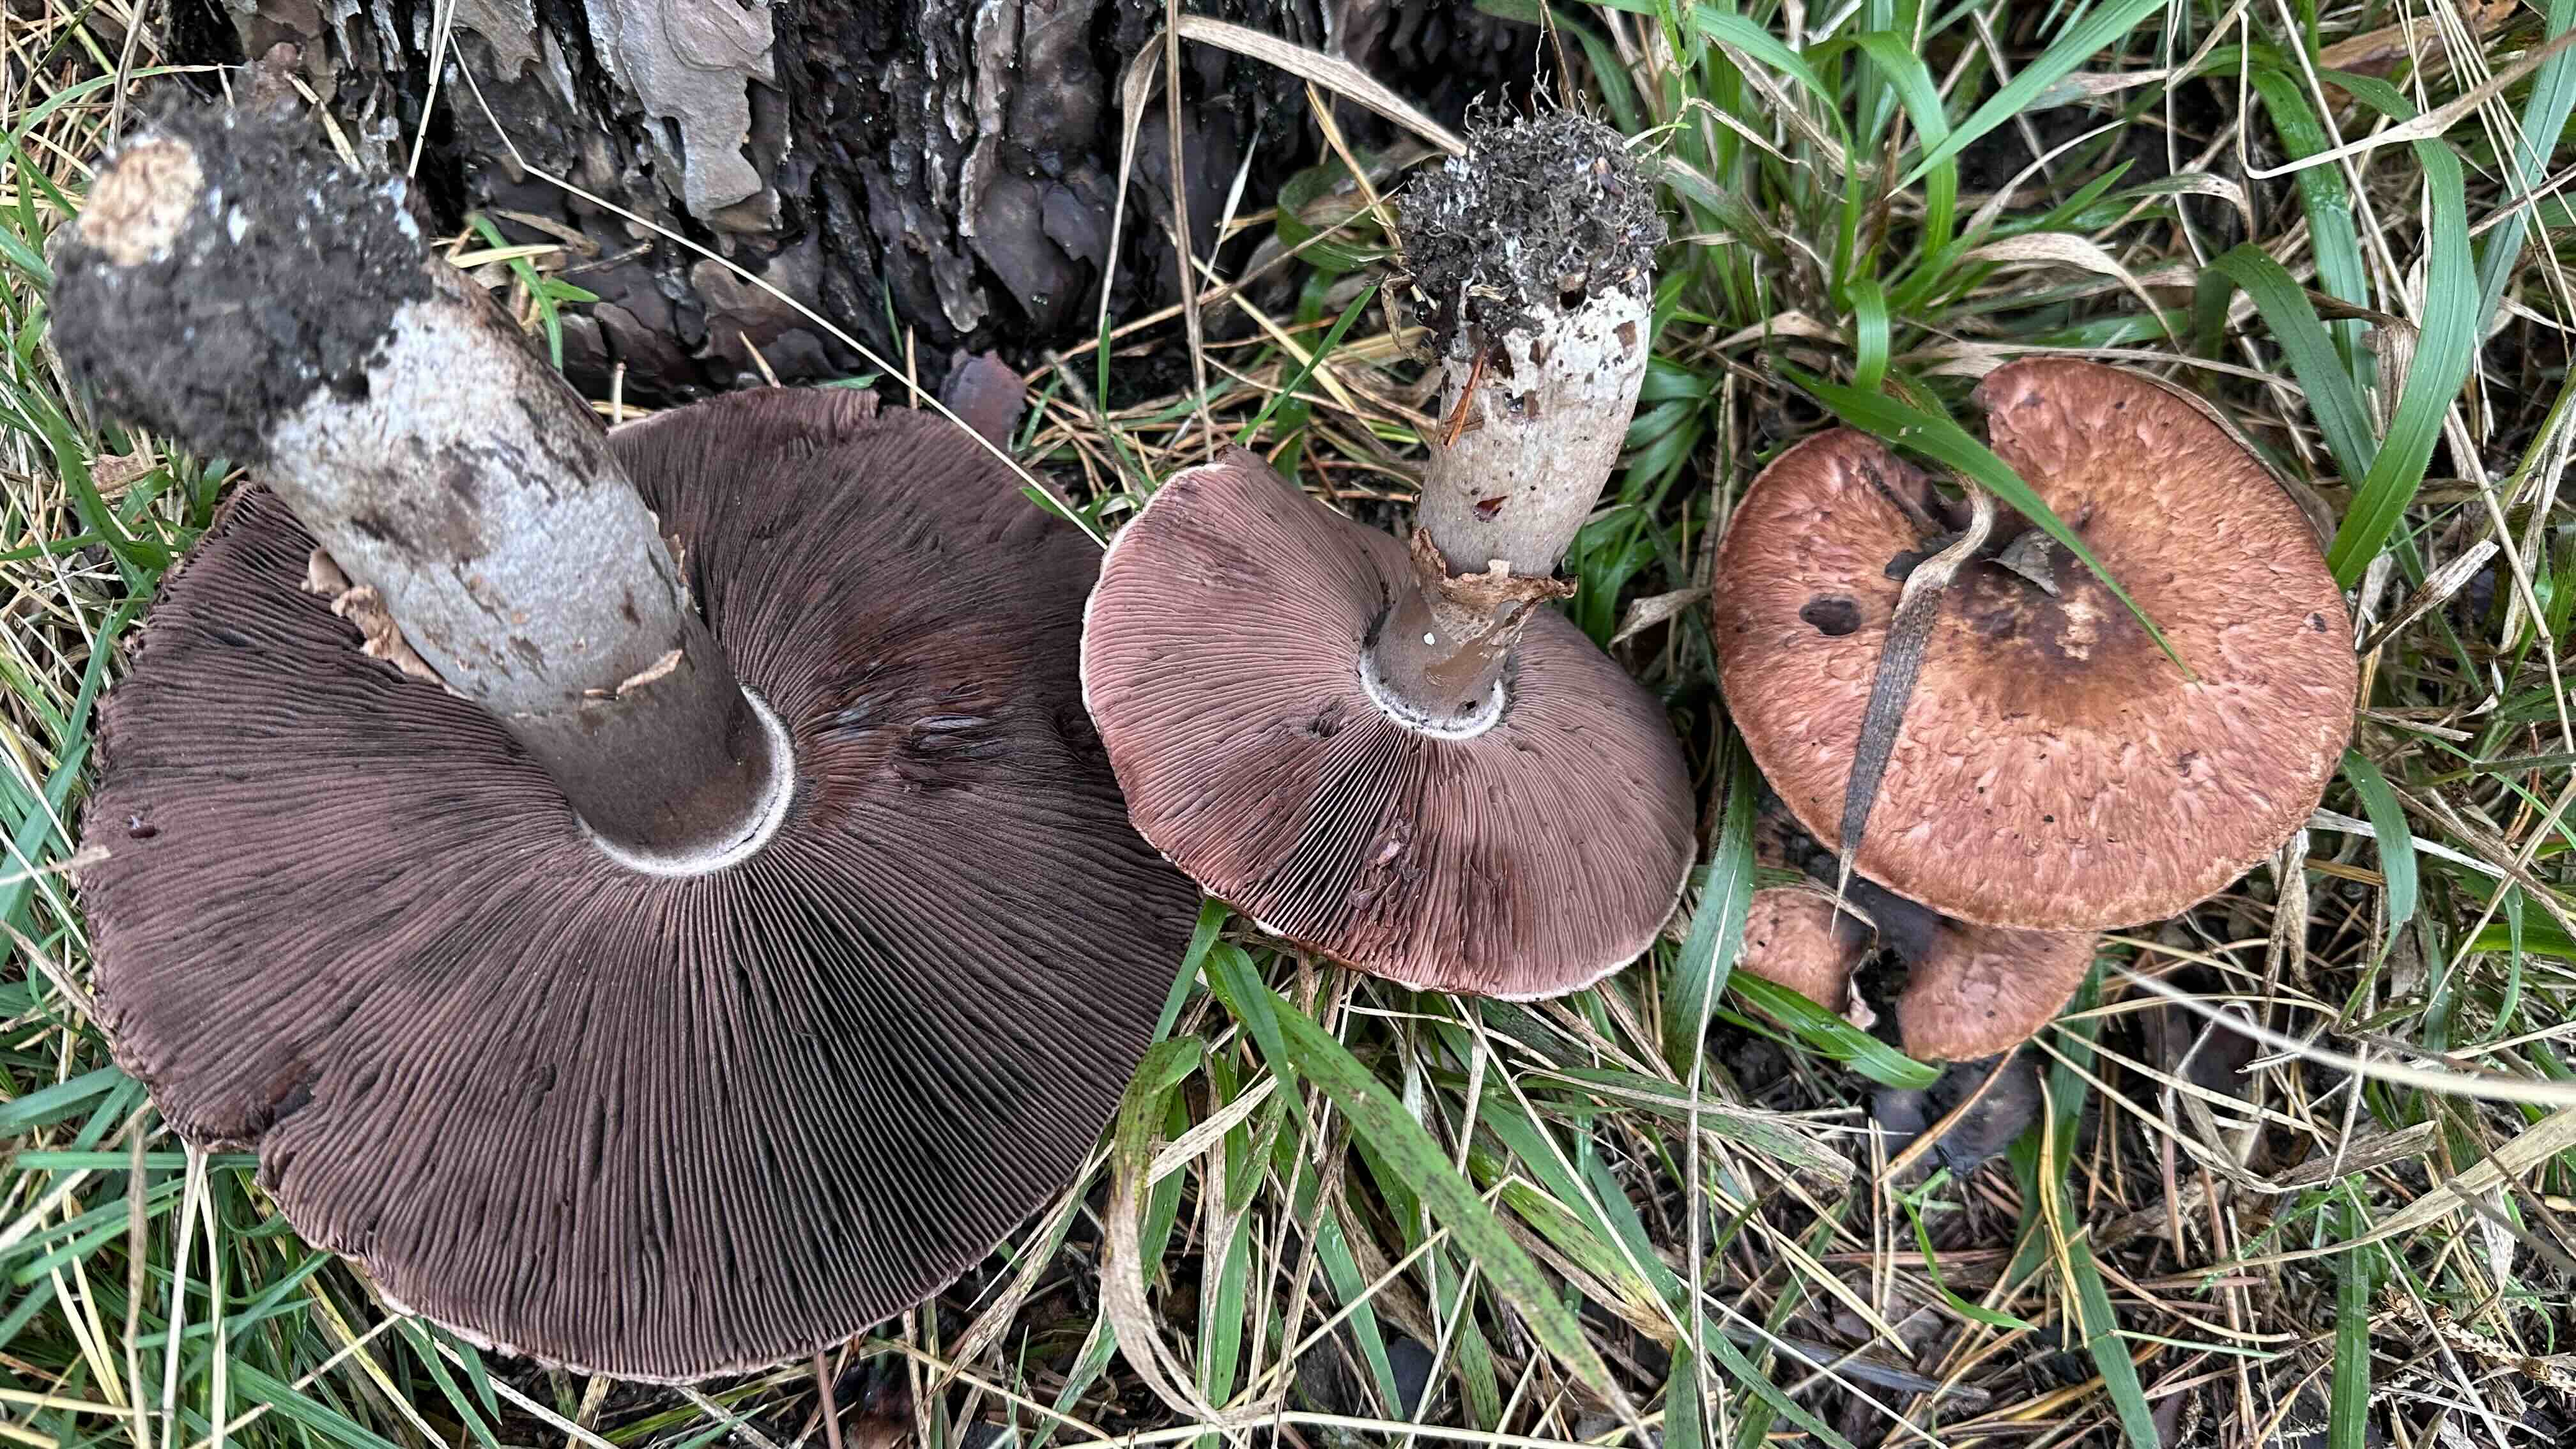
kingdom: Fungi
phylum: Basidiomycota
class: Agaricomycetes
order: Agaricales
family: Agaricaceae
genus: Agaricus
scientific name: Agaricus
